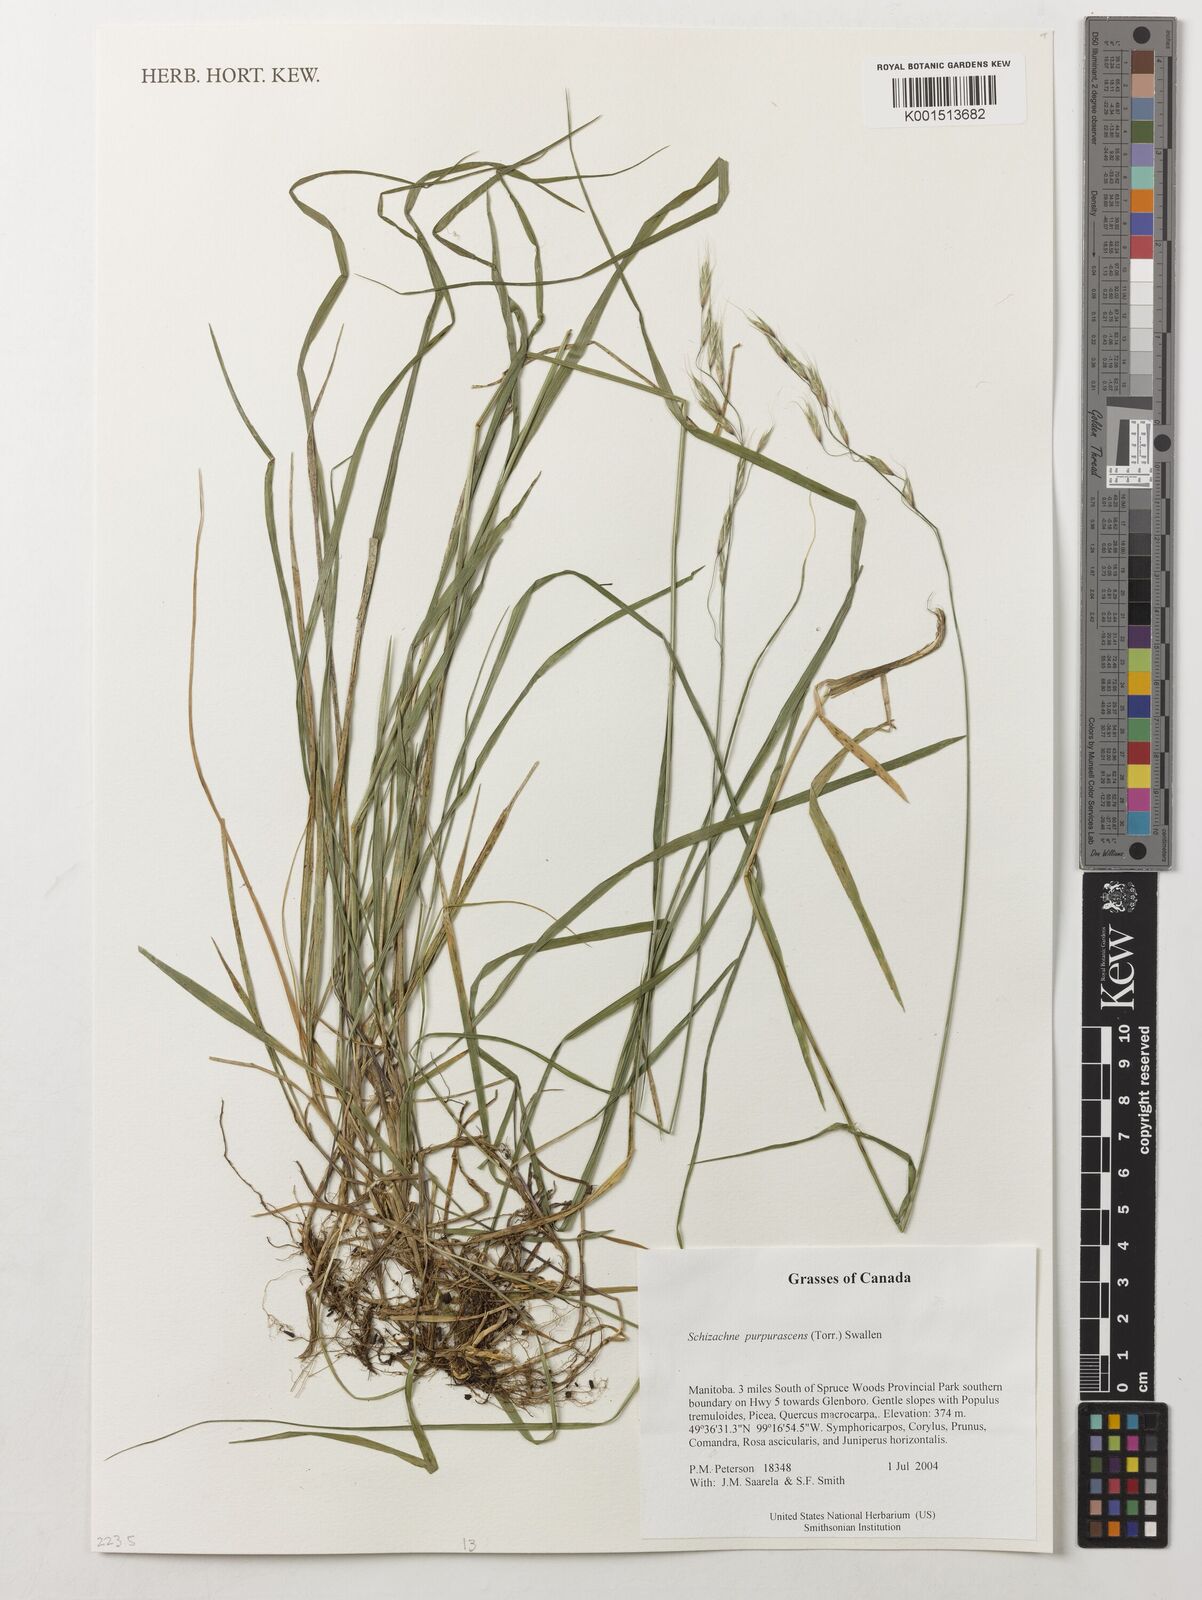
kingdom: Plantae
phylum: Tracheophyta
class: Liliopsida
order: Poales
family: Poaceae
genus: Schizachne
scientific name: Schizachne purpurascens
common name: False melic
